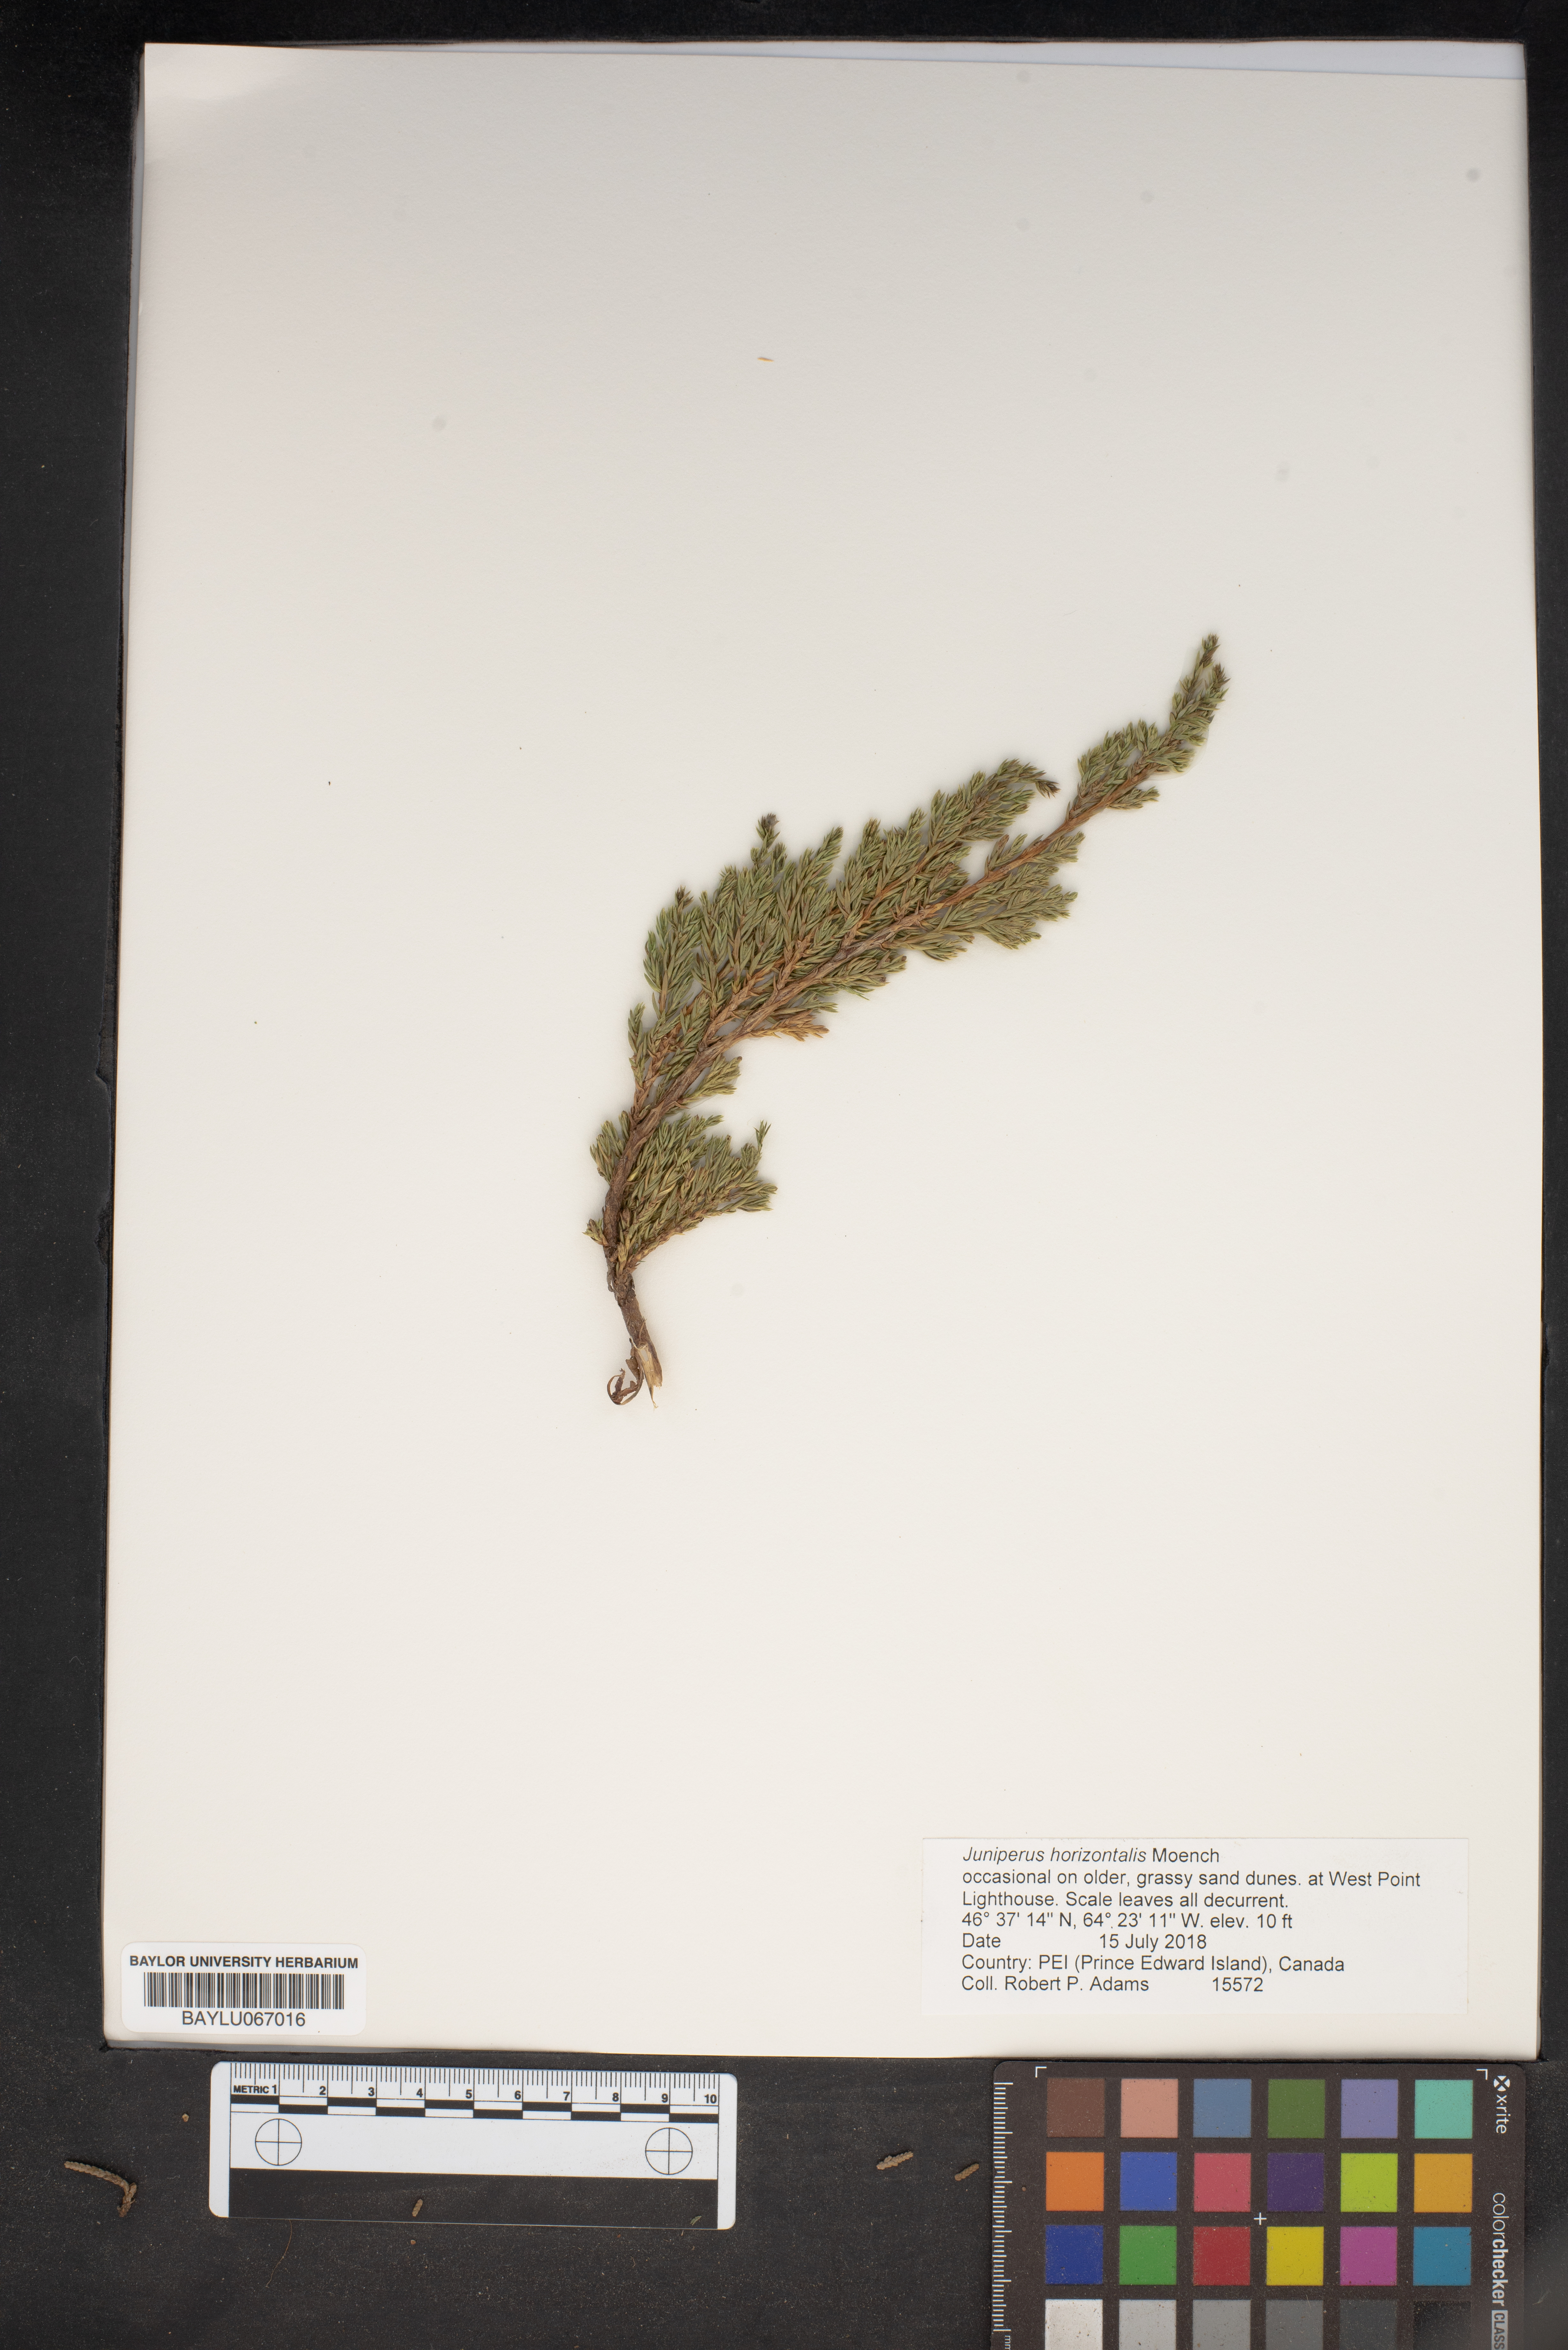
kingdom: Plantae
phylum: Tracheophyta
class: Pinopsida
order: Pinales
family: Cupressaceae
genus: Juniperus
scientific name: Juniperus horizontalis
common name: Creeping juniper
